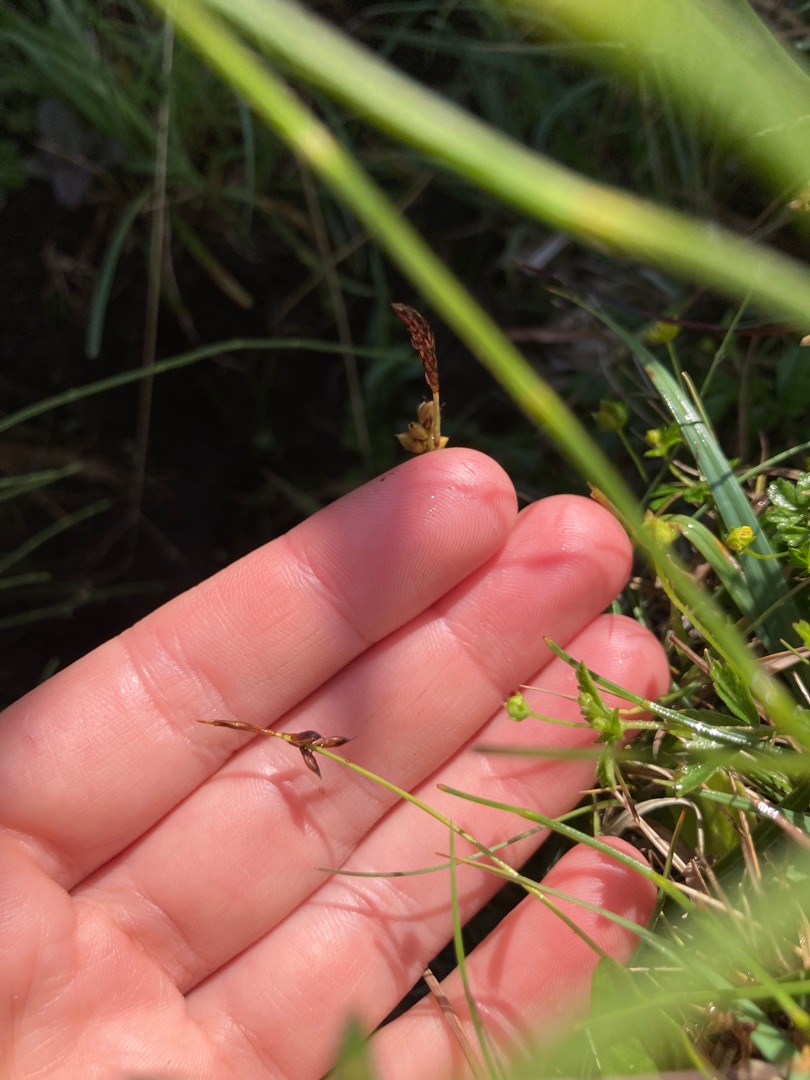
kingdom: Plantae
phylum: Tracheophyta
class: Liliopsida
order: Poales
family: Cyperaceae
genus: Carex
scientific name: Carex pulicaris
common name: Loppe-star
